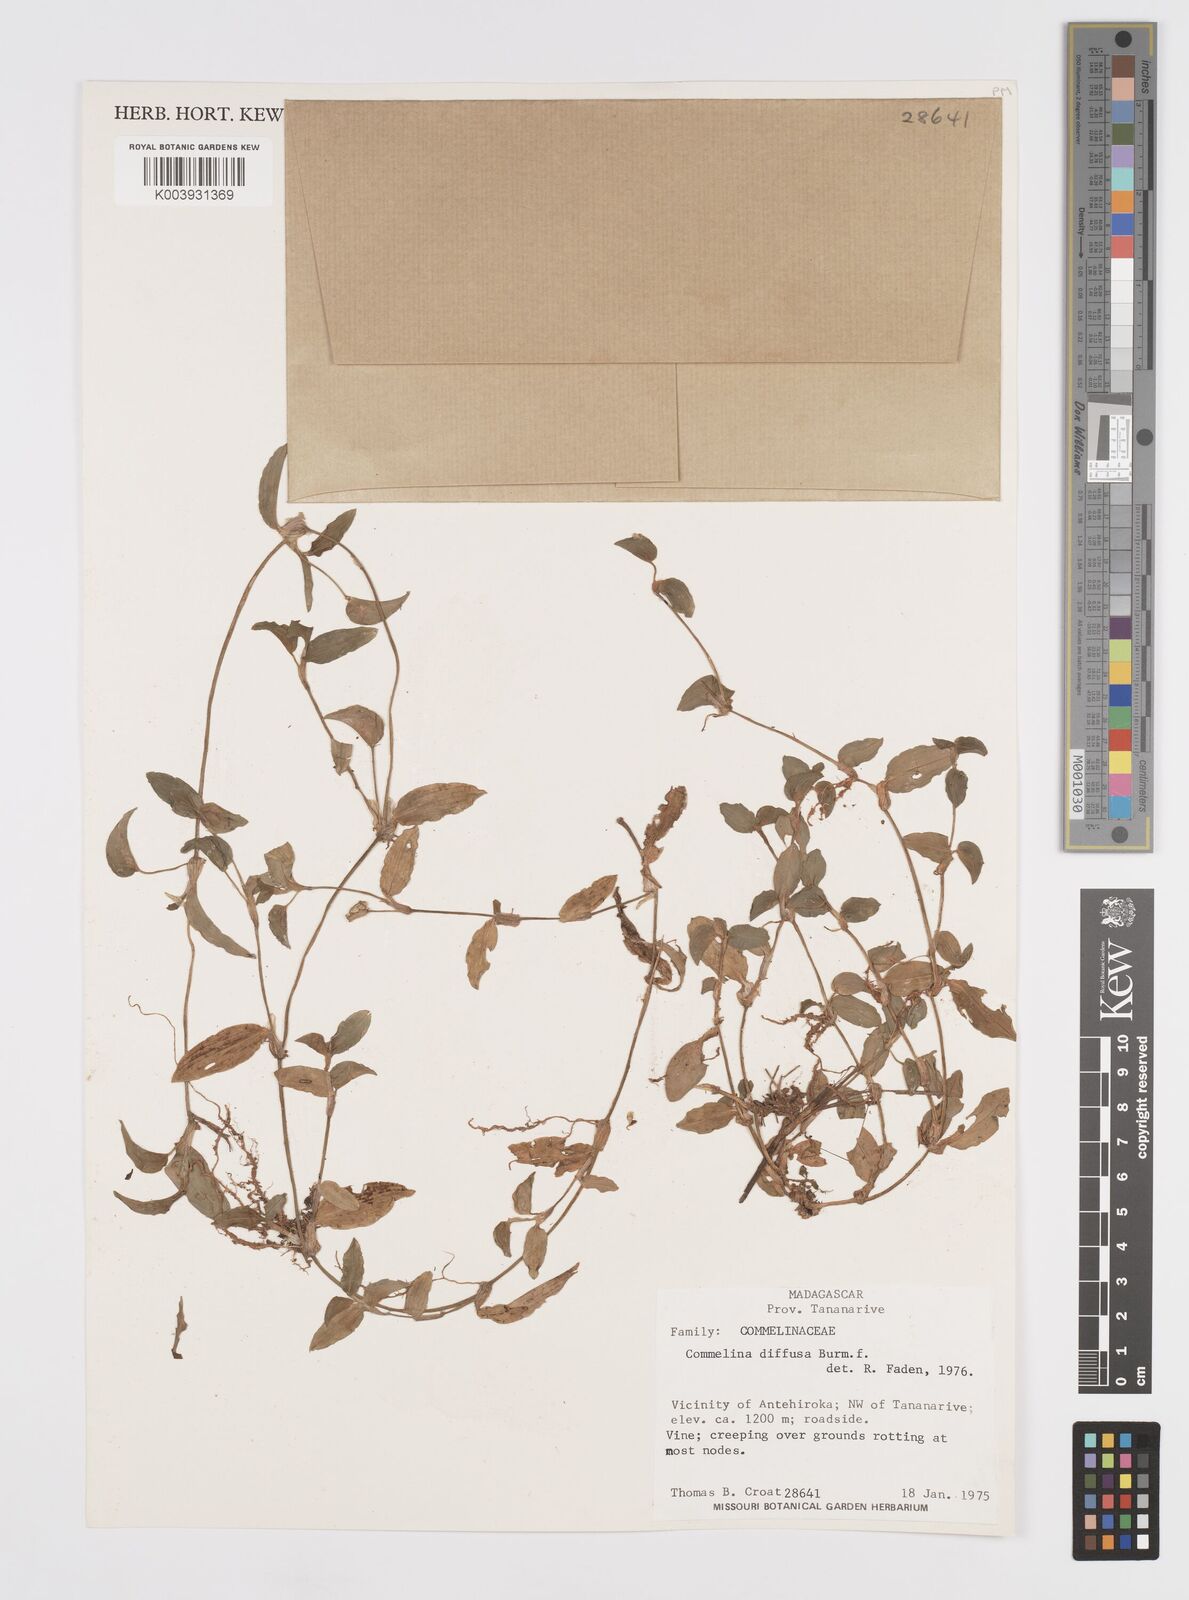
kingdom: Plantae
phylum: Tracheophyta
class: Liliopsida
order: Commelinales
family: Commelinaceae
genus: Commelina
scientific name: Commelina diffusa
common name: Climbing dayflower
